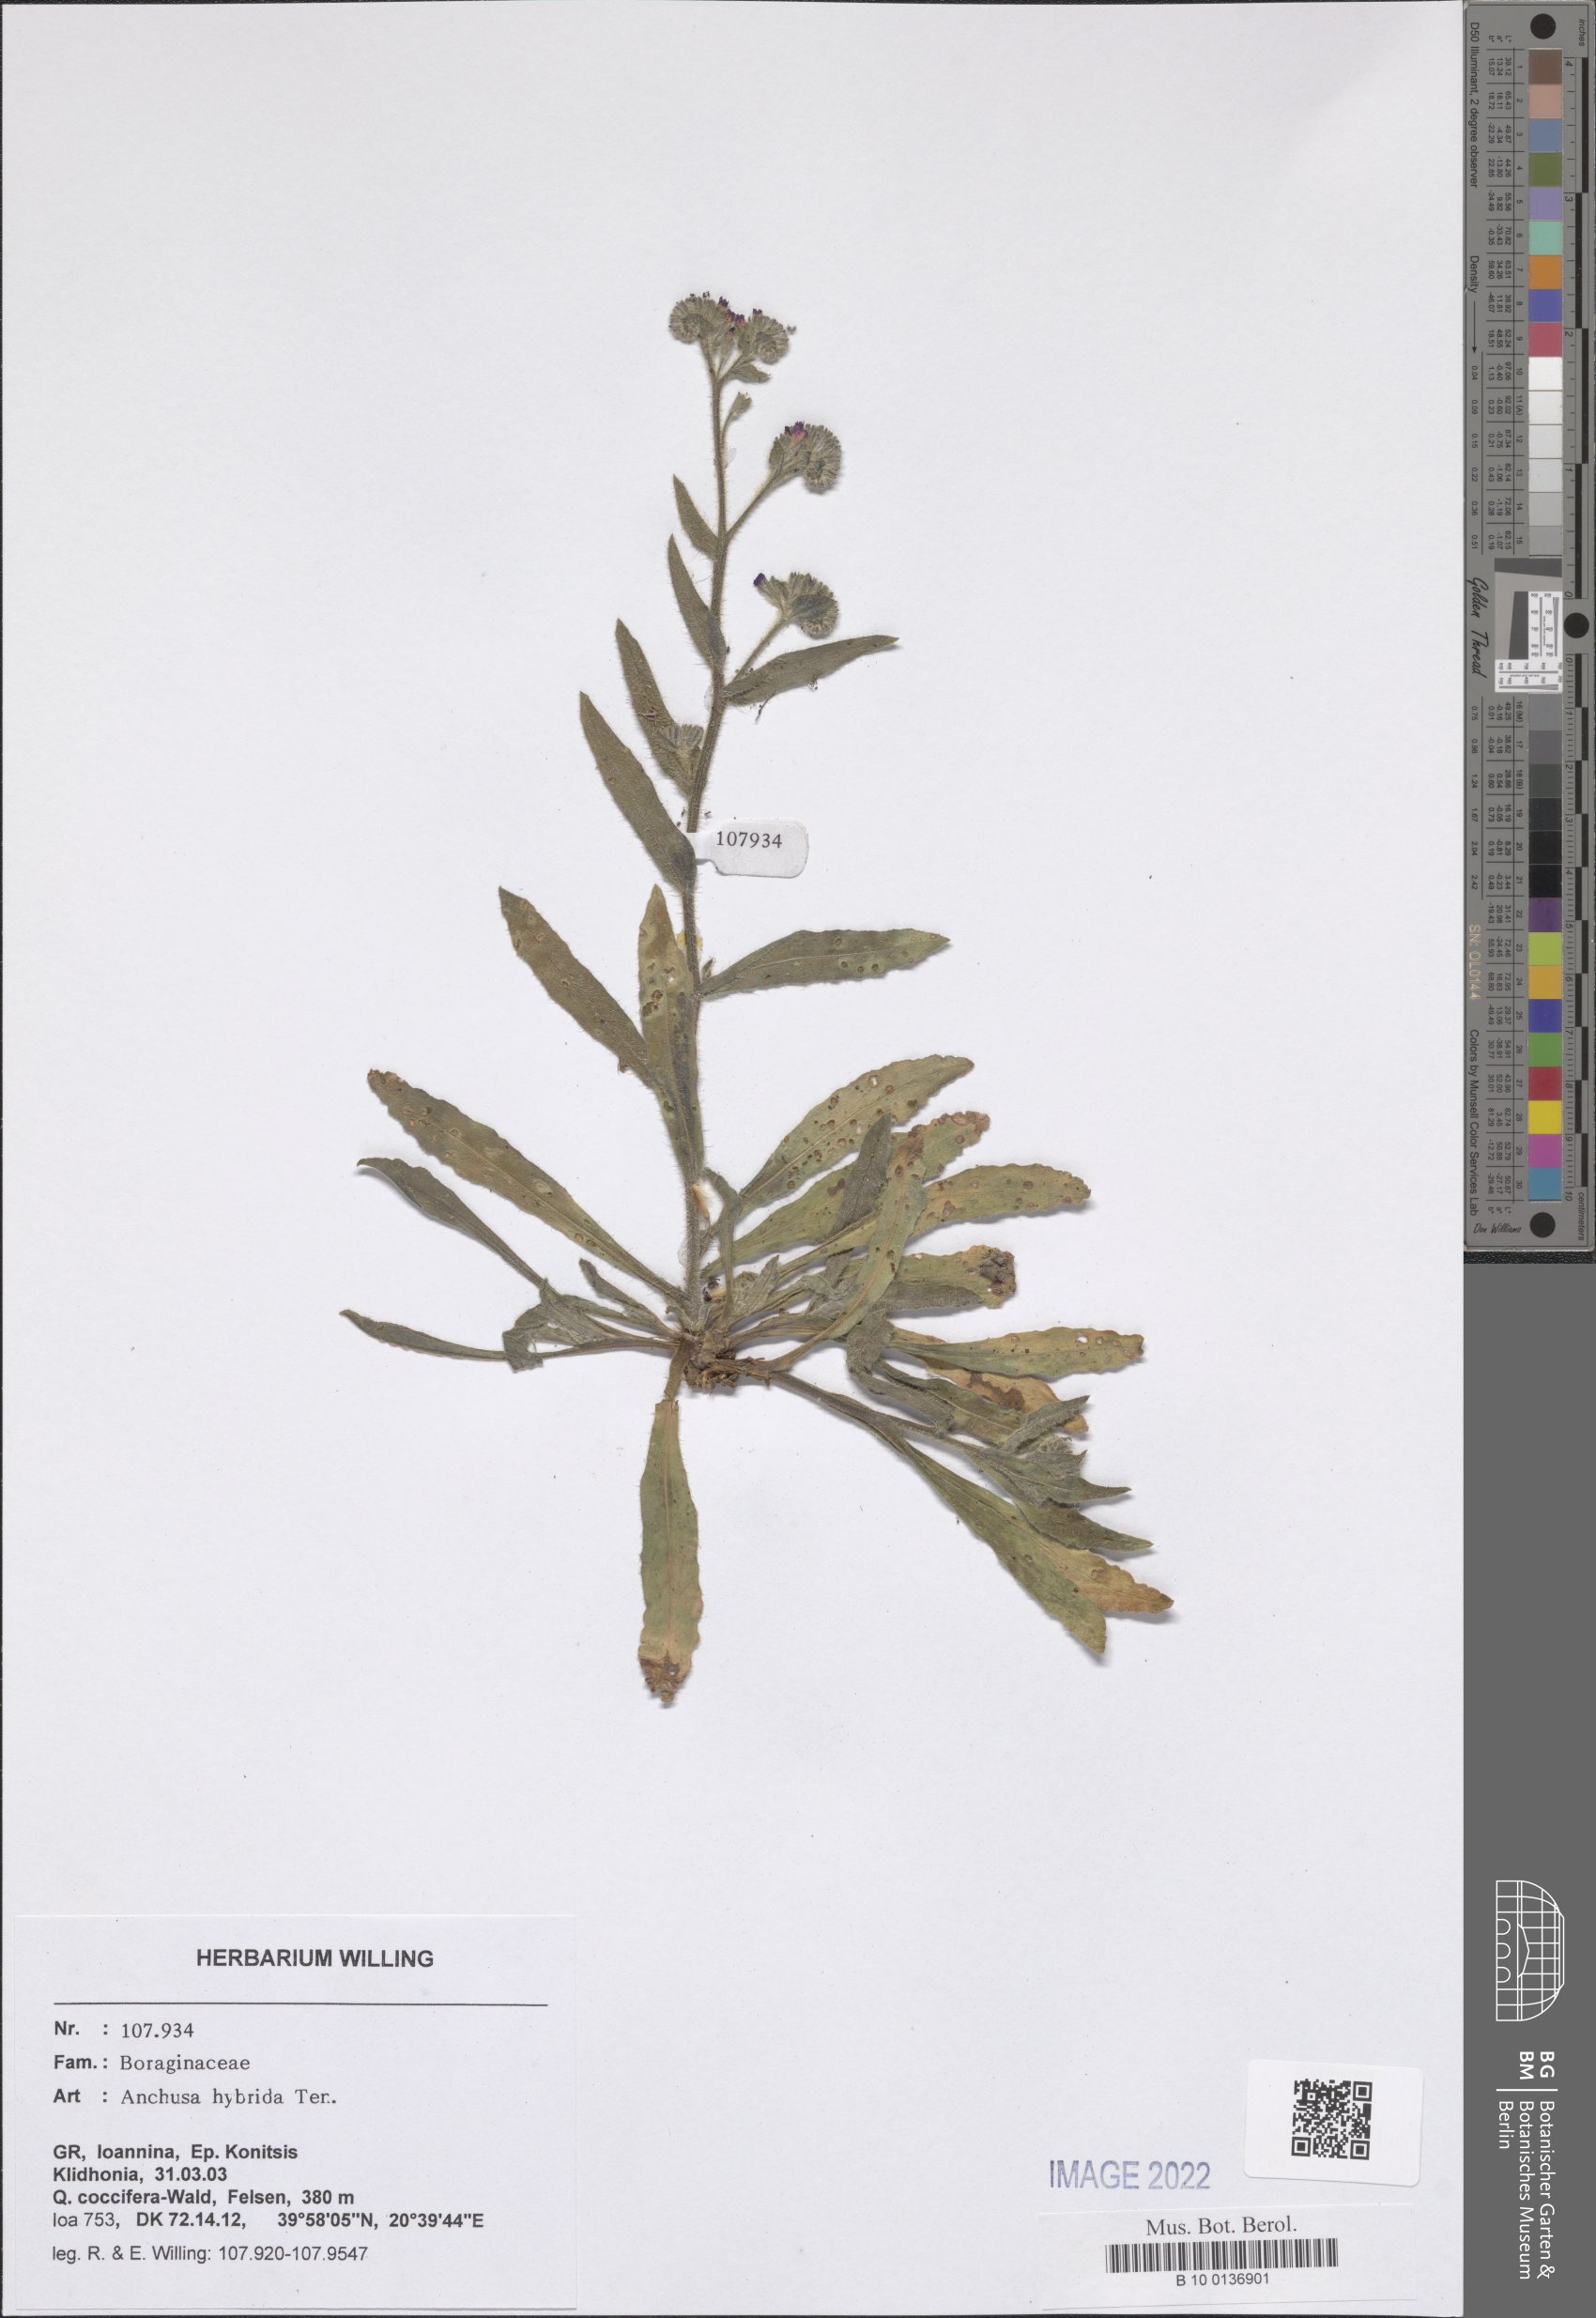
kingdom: Plantae
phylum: Tracheophyta
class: Magnoliopsida
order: Boraginales
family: Boraginaceae
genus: Anchusa
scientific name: Anchusa hybrida
